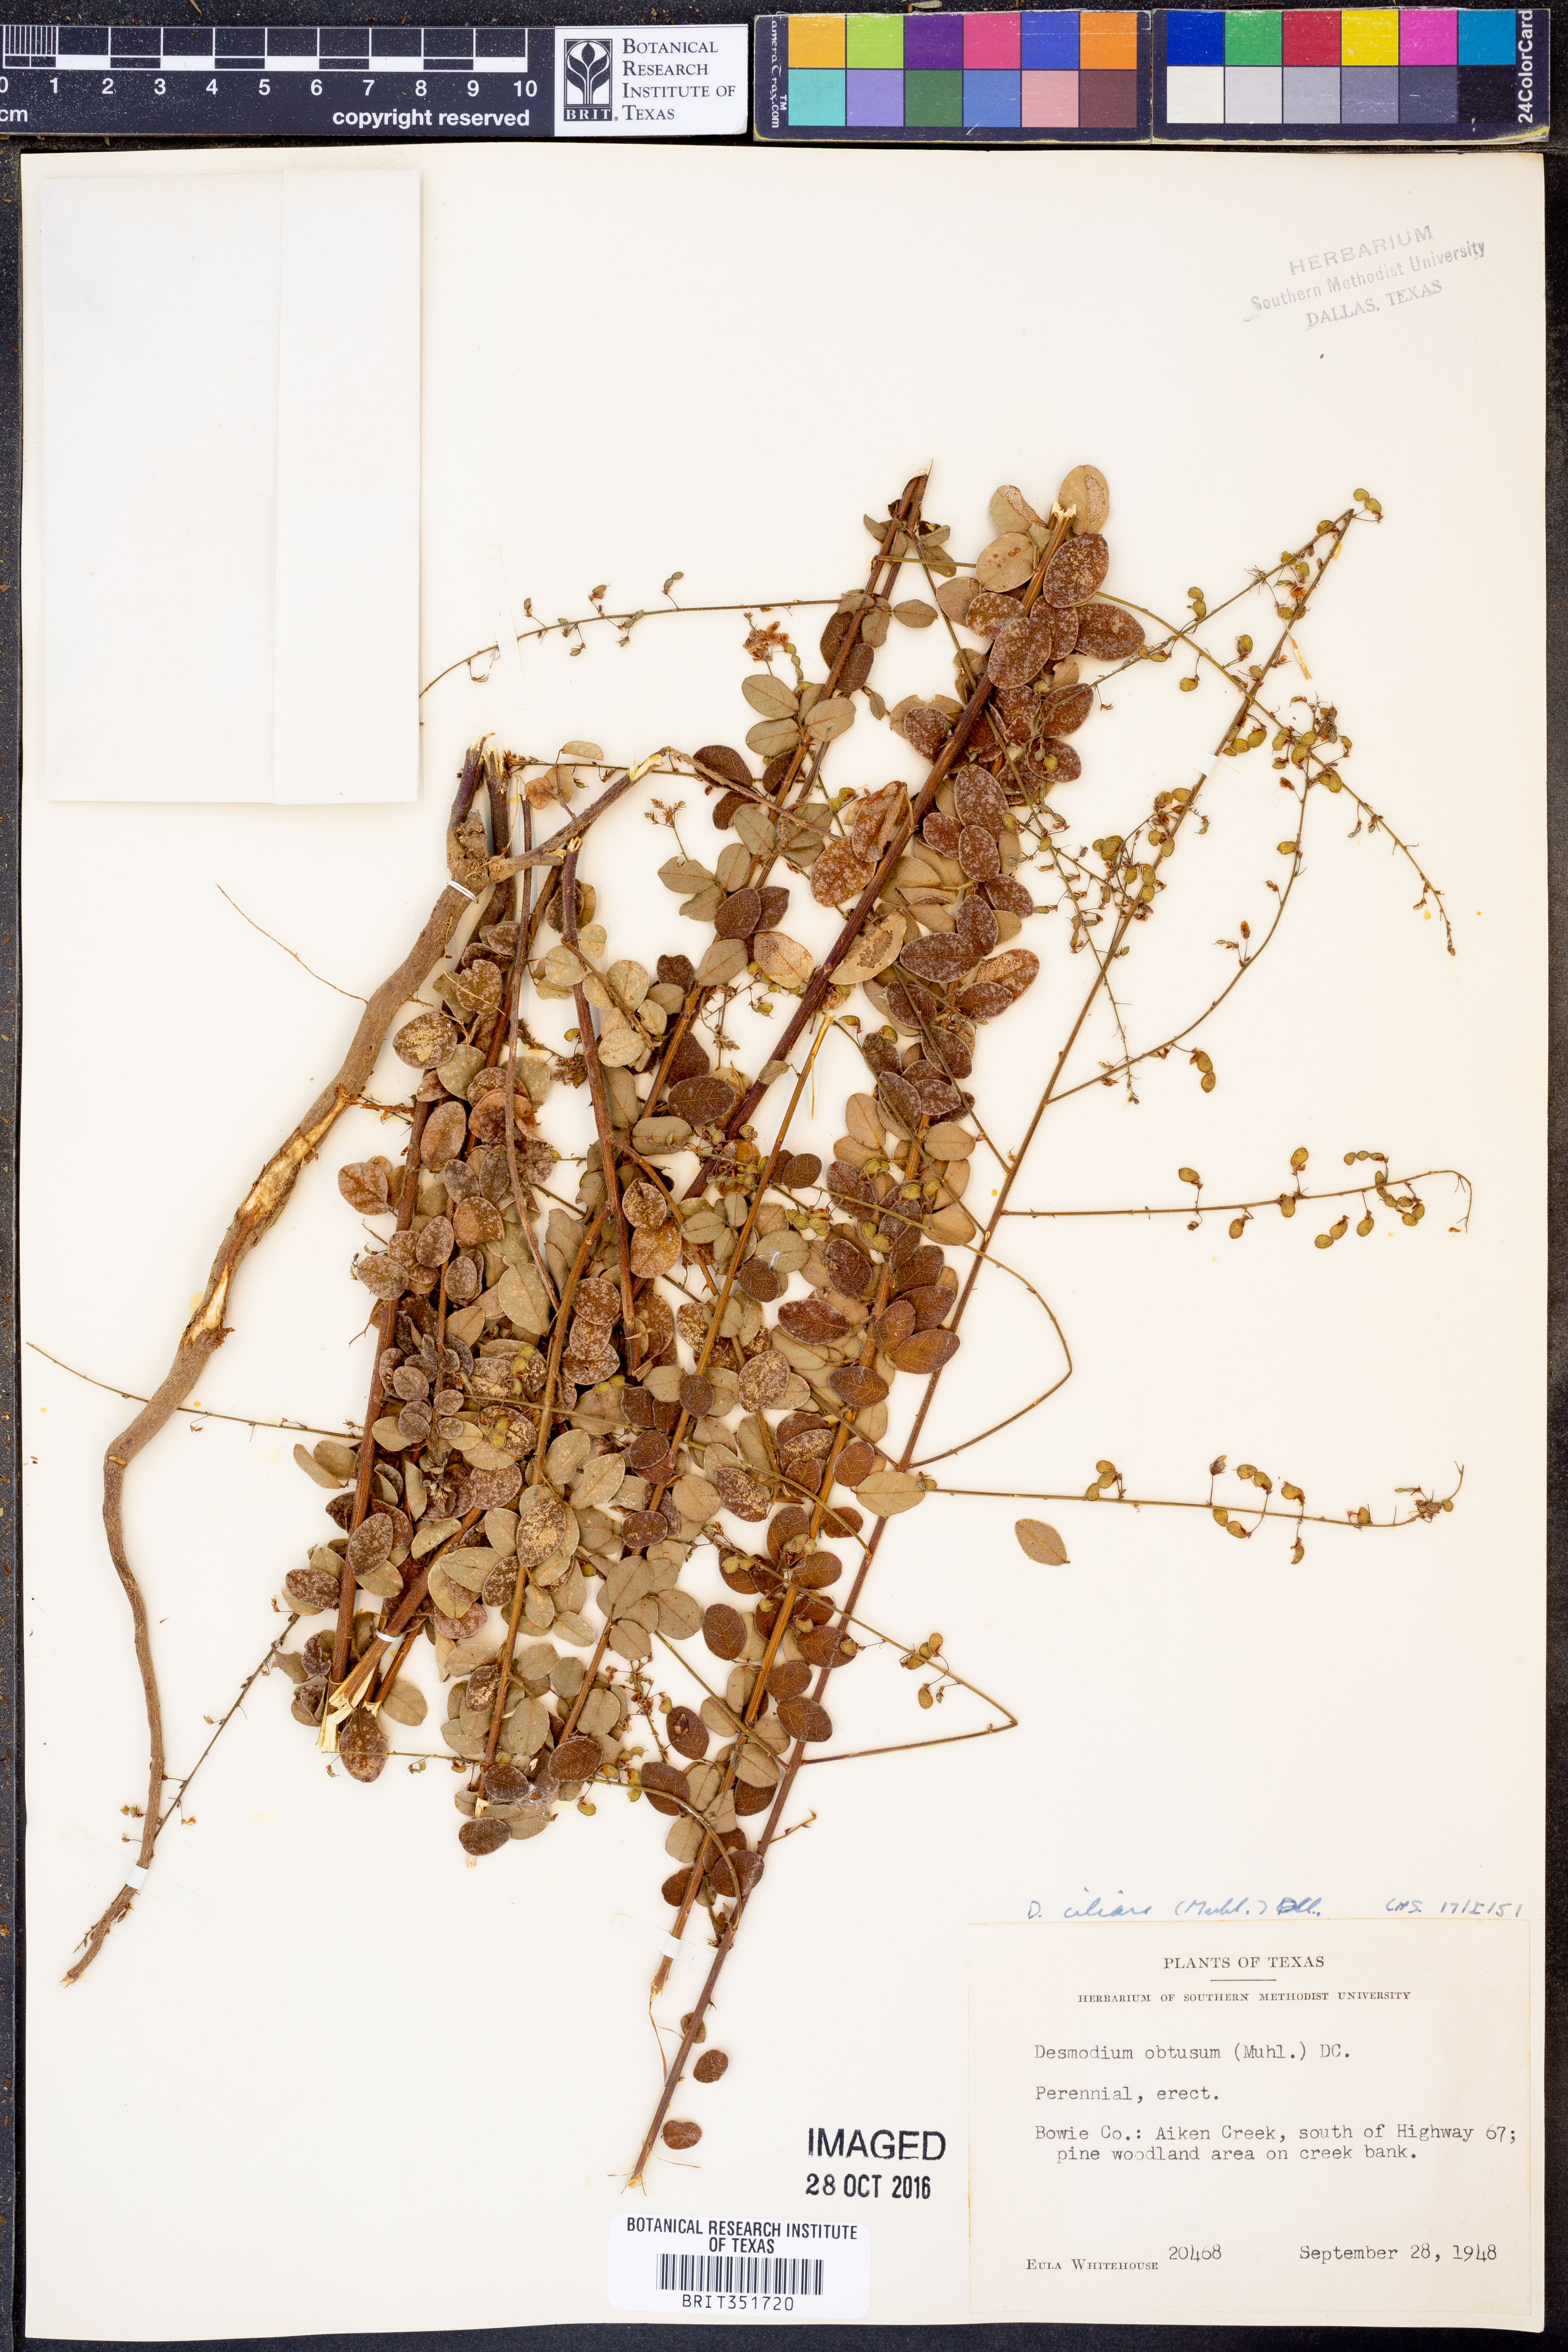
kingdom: Plantae
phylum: Tracheophyta
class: Magnoliopsida
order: Fabales
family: Fabaceae
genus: Desmodium
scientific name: Desmodium obtusum
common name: Stiff tick trefoil
